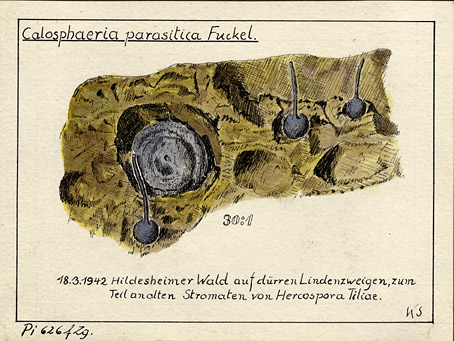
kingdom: Plantae
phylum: Tracheophyta
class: Magnoliopsida
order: Malvales
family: Malvaceae
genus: Tilia
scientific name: Tilia
